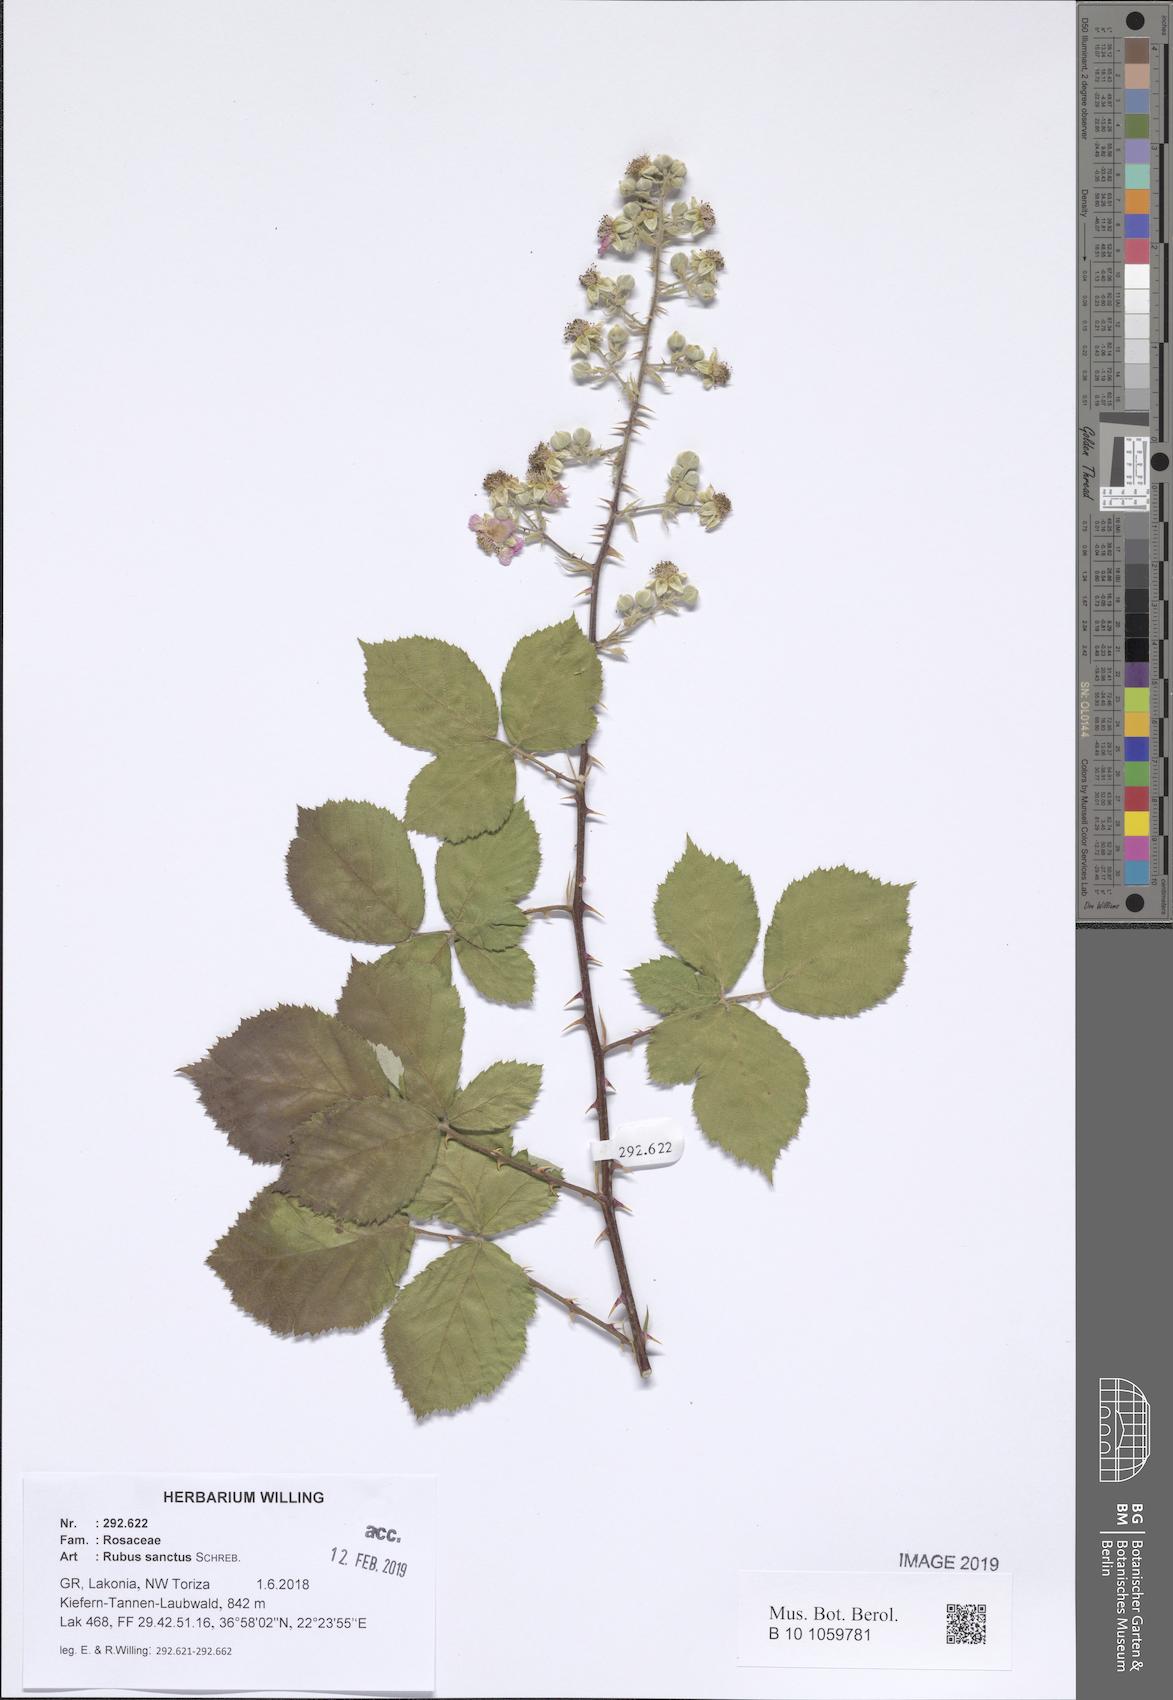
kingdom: Plantae
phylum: Tracheophyta
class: Magnoliopsida
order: Rosales
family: Rosaceae
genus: Rubus
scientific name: Rubus sanctus
